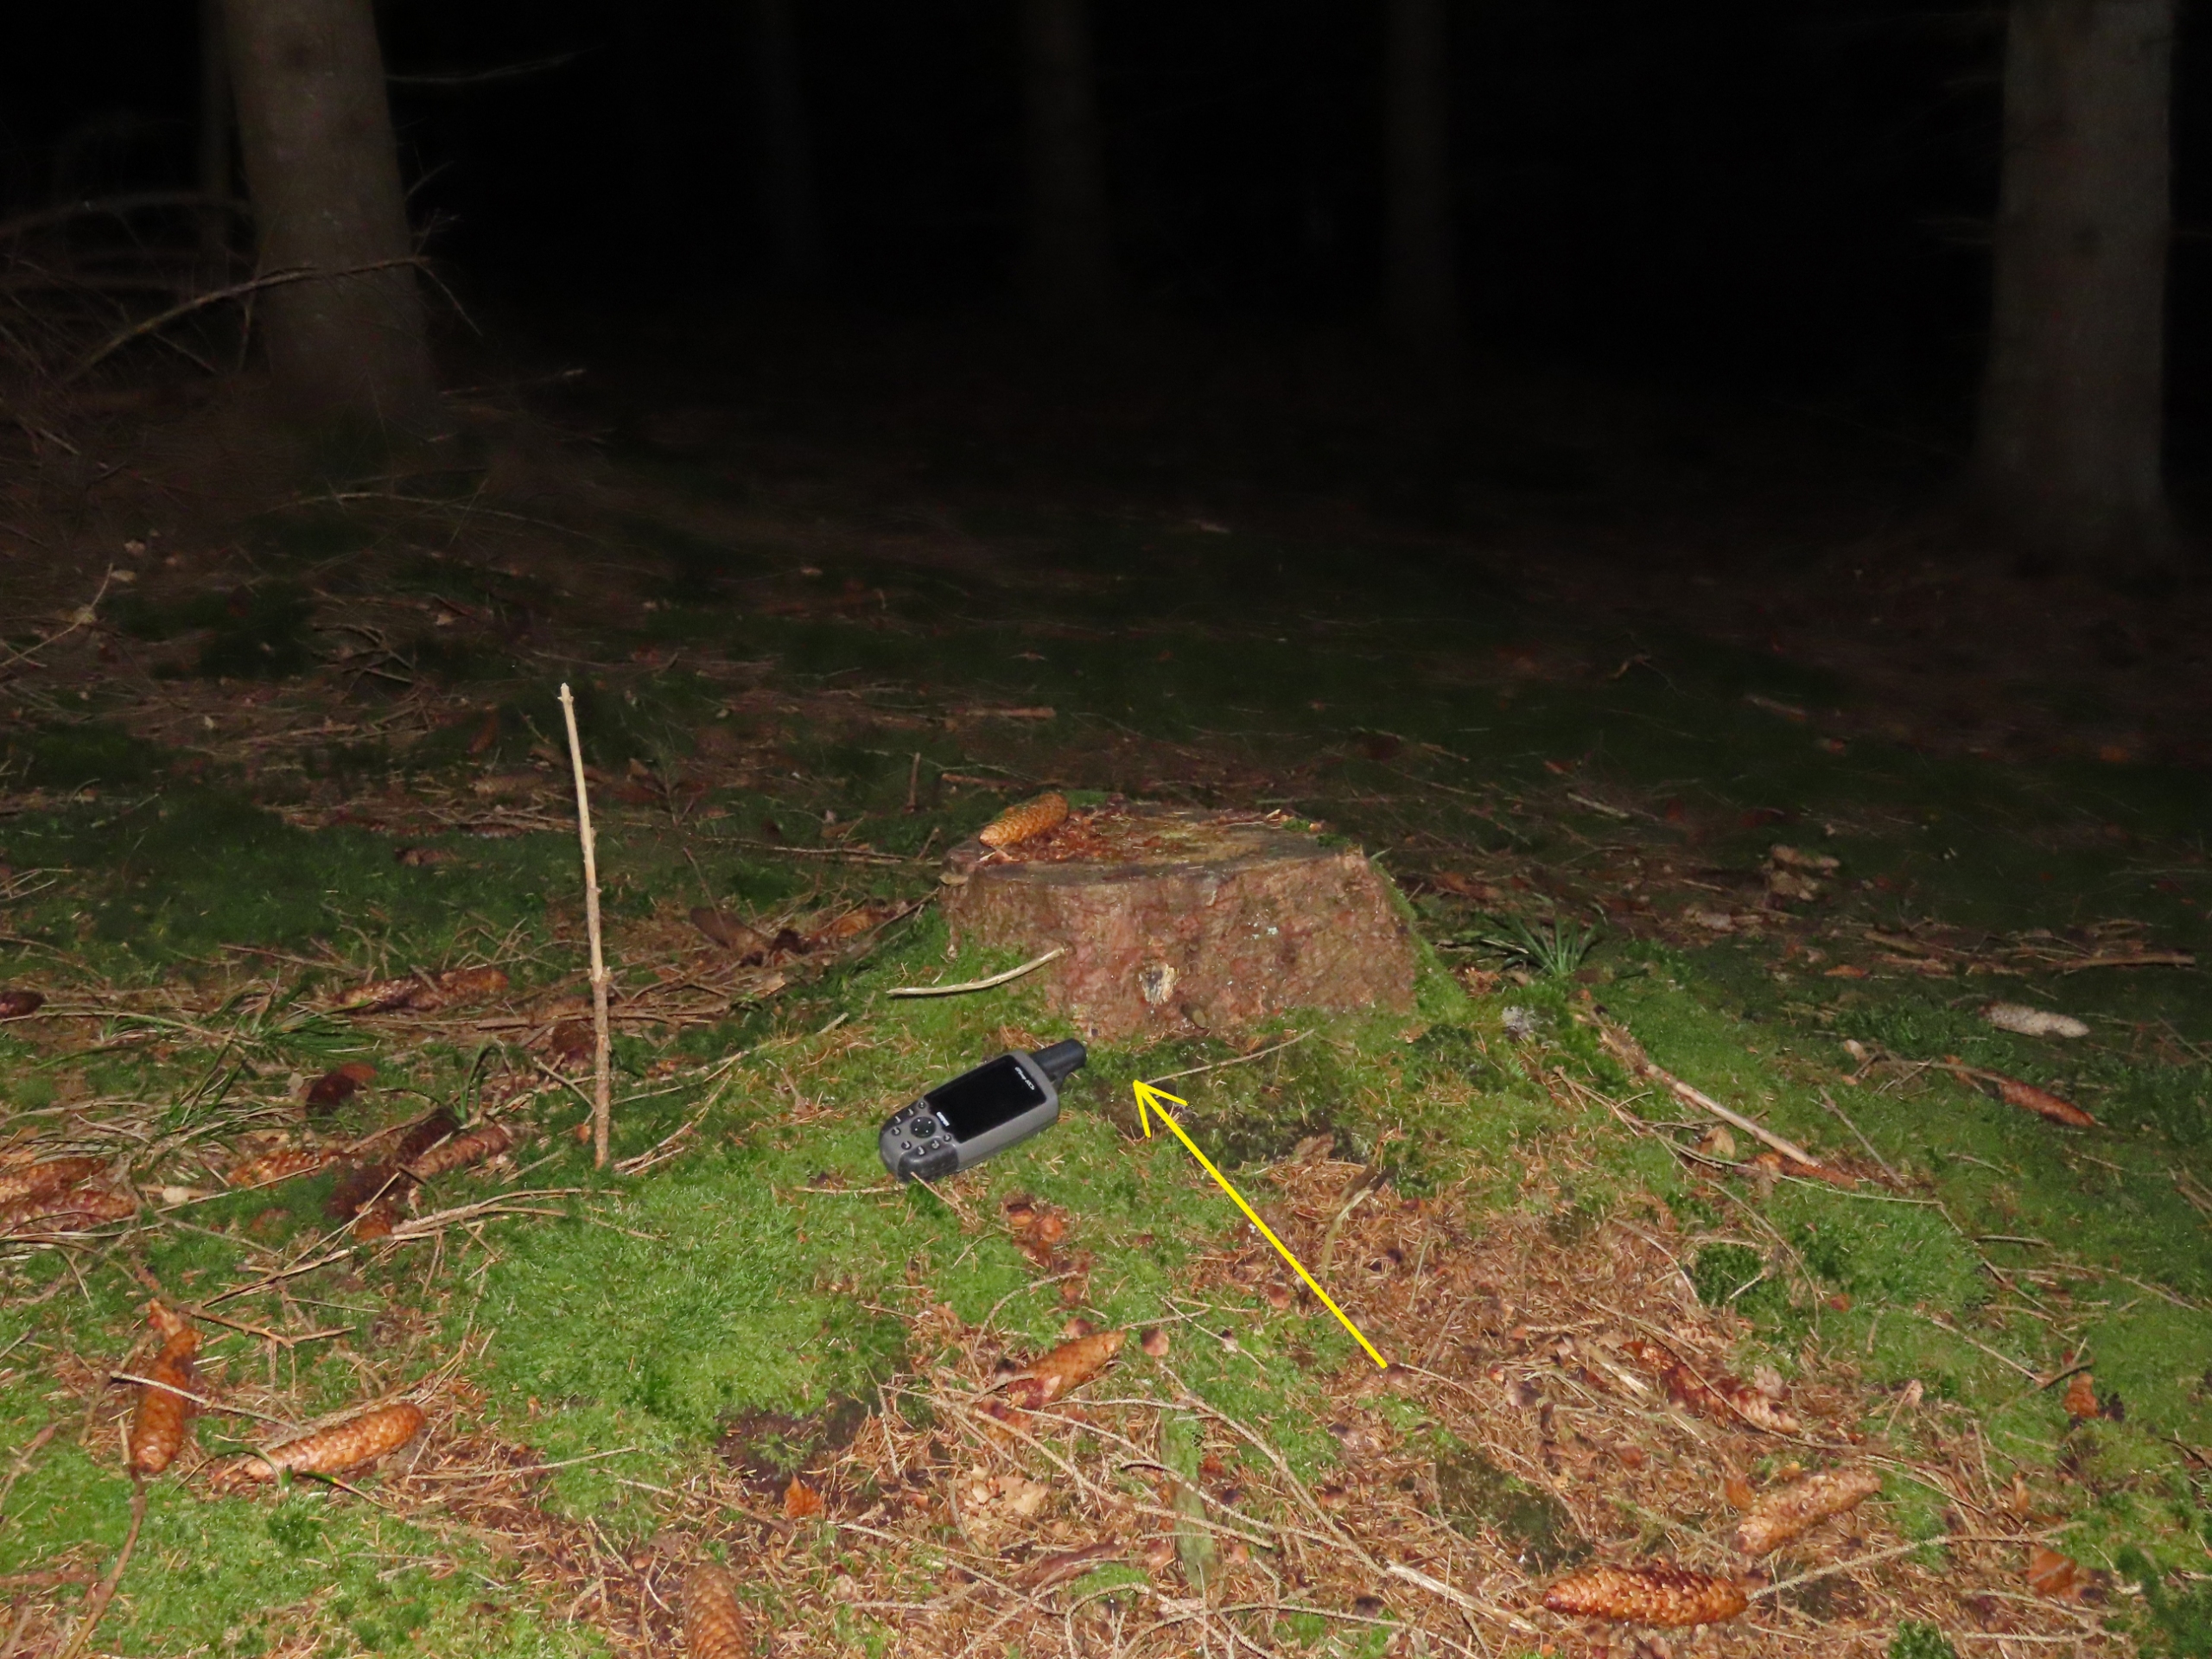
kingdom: Plantae
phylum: Bryophyta
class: Bryopsida
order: Buxbaumiales
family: Buxbaumiaceae
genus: Buxbaumia
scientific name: Buxbaumia viridis
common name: Grøn buxbaumia
